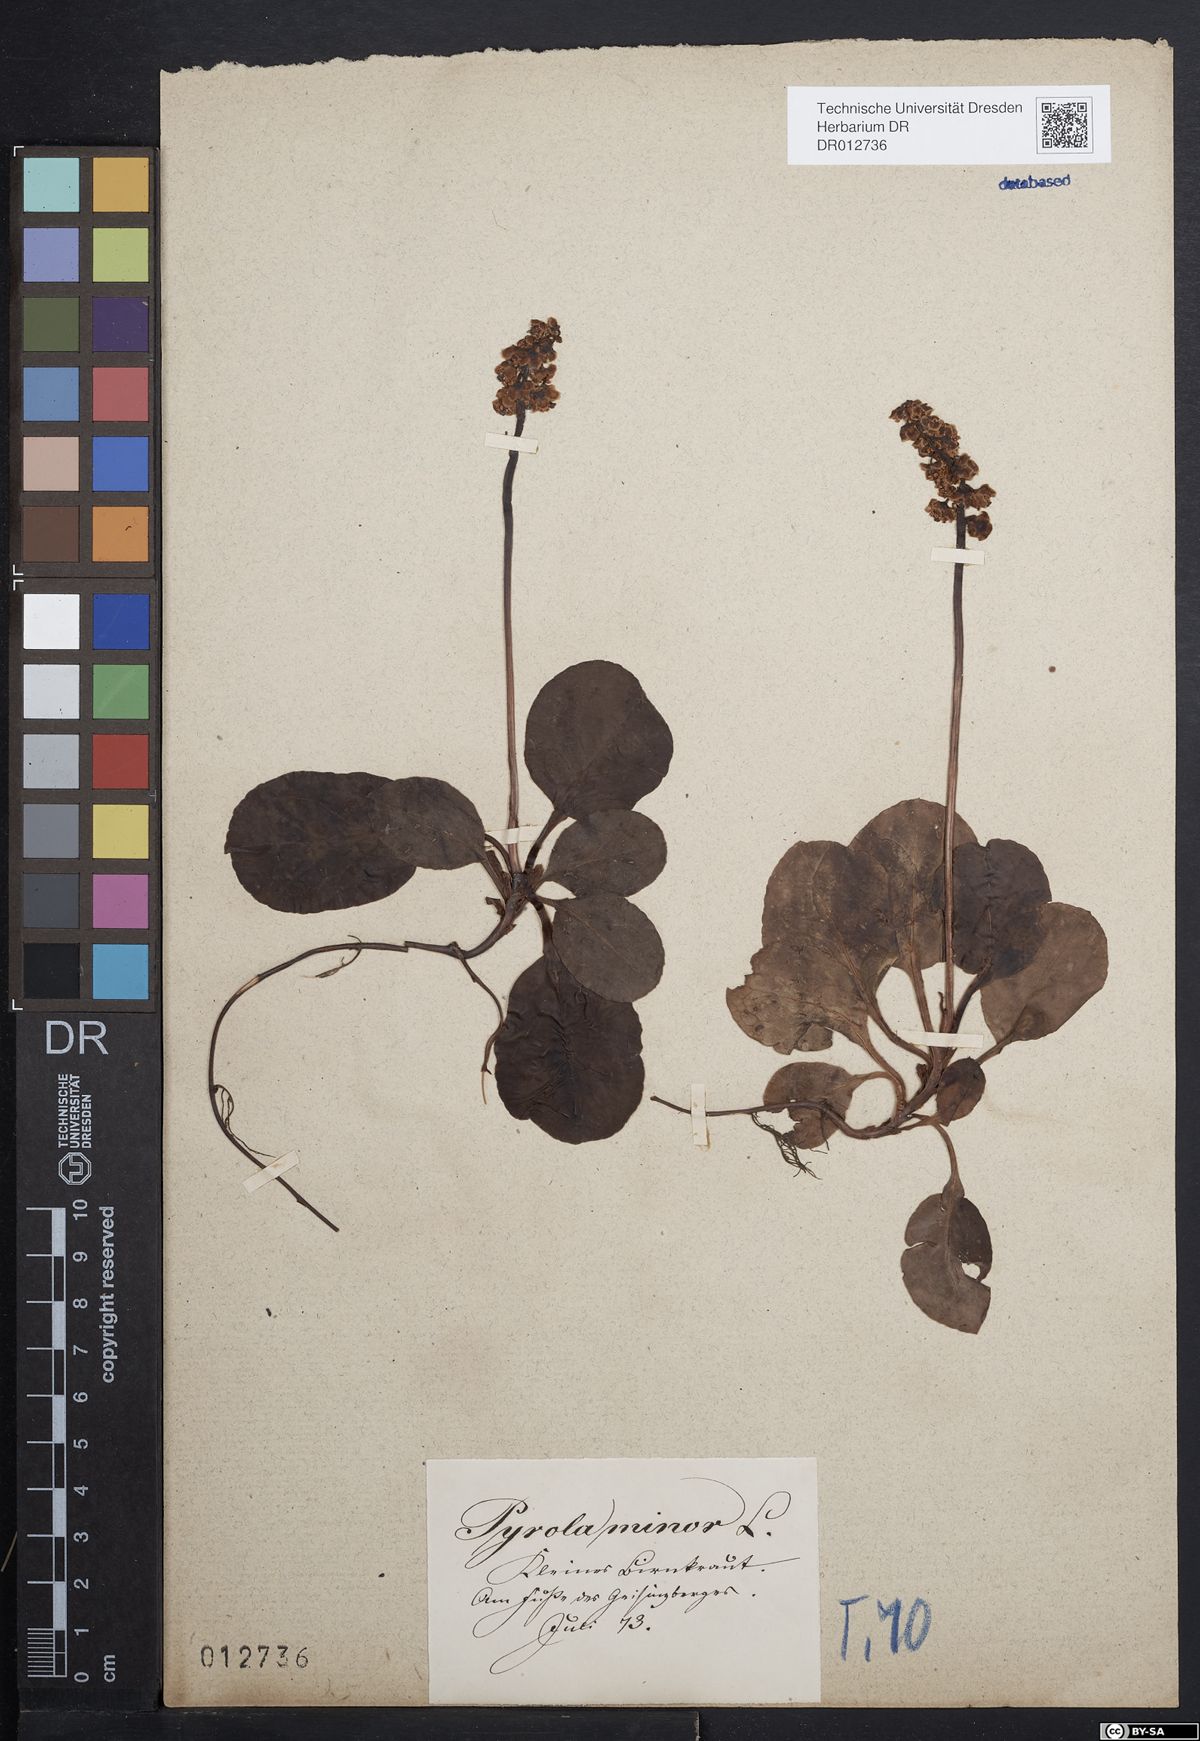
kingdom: Plantae
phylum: Tracheophyta
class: Magnoliopsida
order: Ericales
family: Ericaceae
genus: Pyrola
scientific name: Pyrola minor
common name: Common wintergreen
